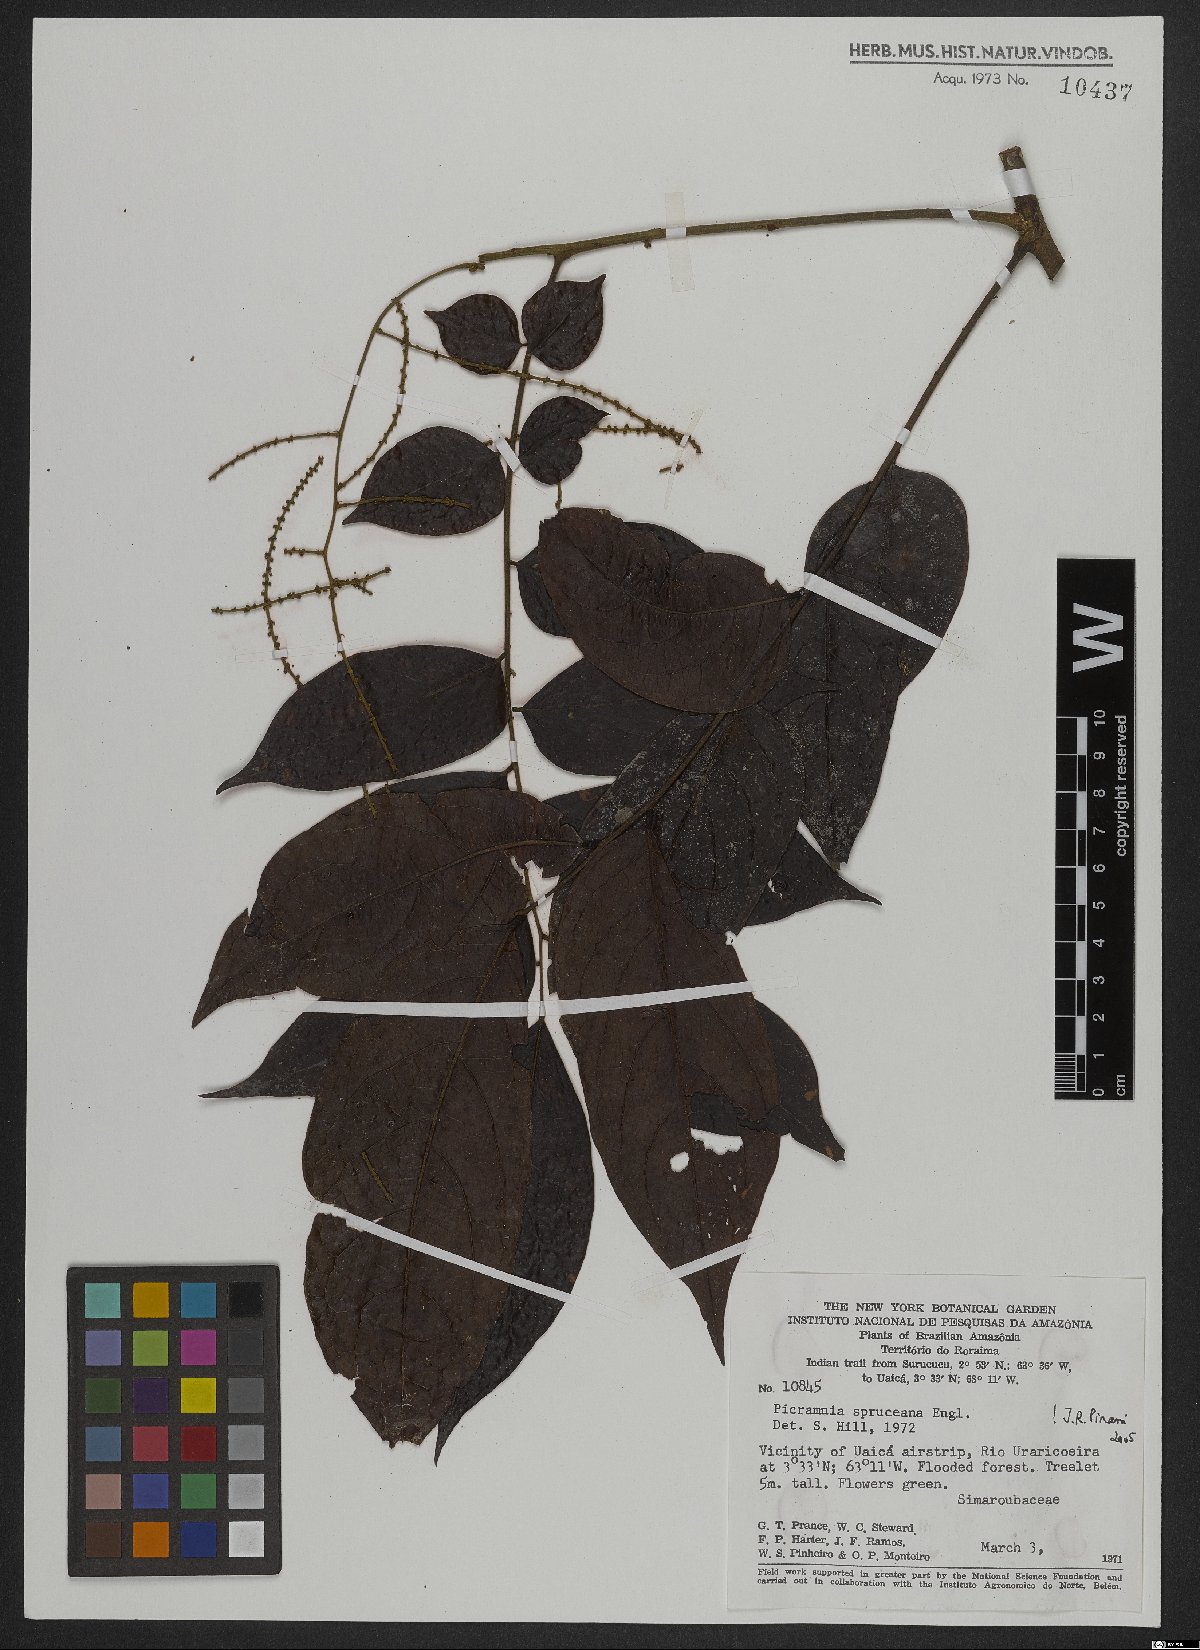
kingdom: Plantae
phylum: Tracheophyta
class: Magnoliopsida
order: Picramniales
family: Picramniaceae
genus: Picramnia
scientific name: Picramnia spruceana
